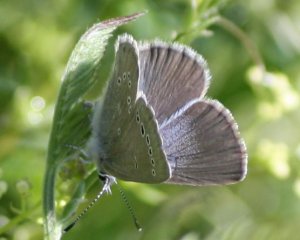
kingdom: Animalia
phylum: Arthropoda
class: Insecta
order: Lepidoptera
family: Lycaenidae
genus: Glaucopsyche
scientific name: Glaucopsyche lygdamus
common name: Silvery Blue
